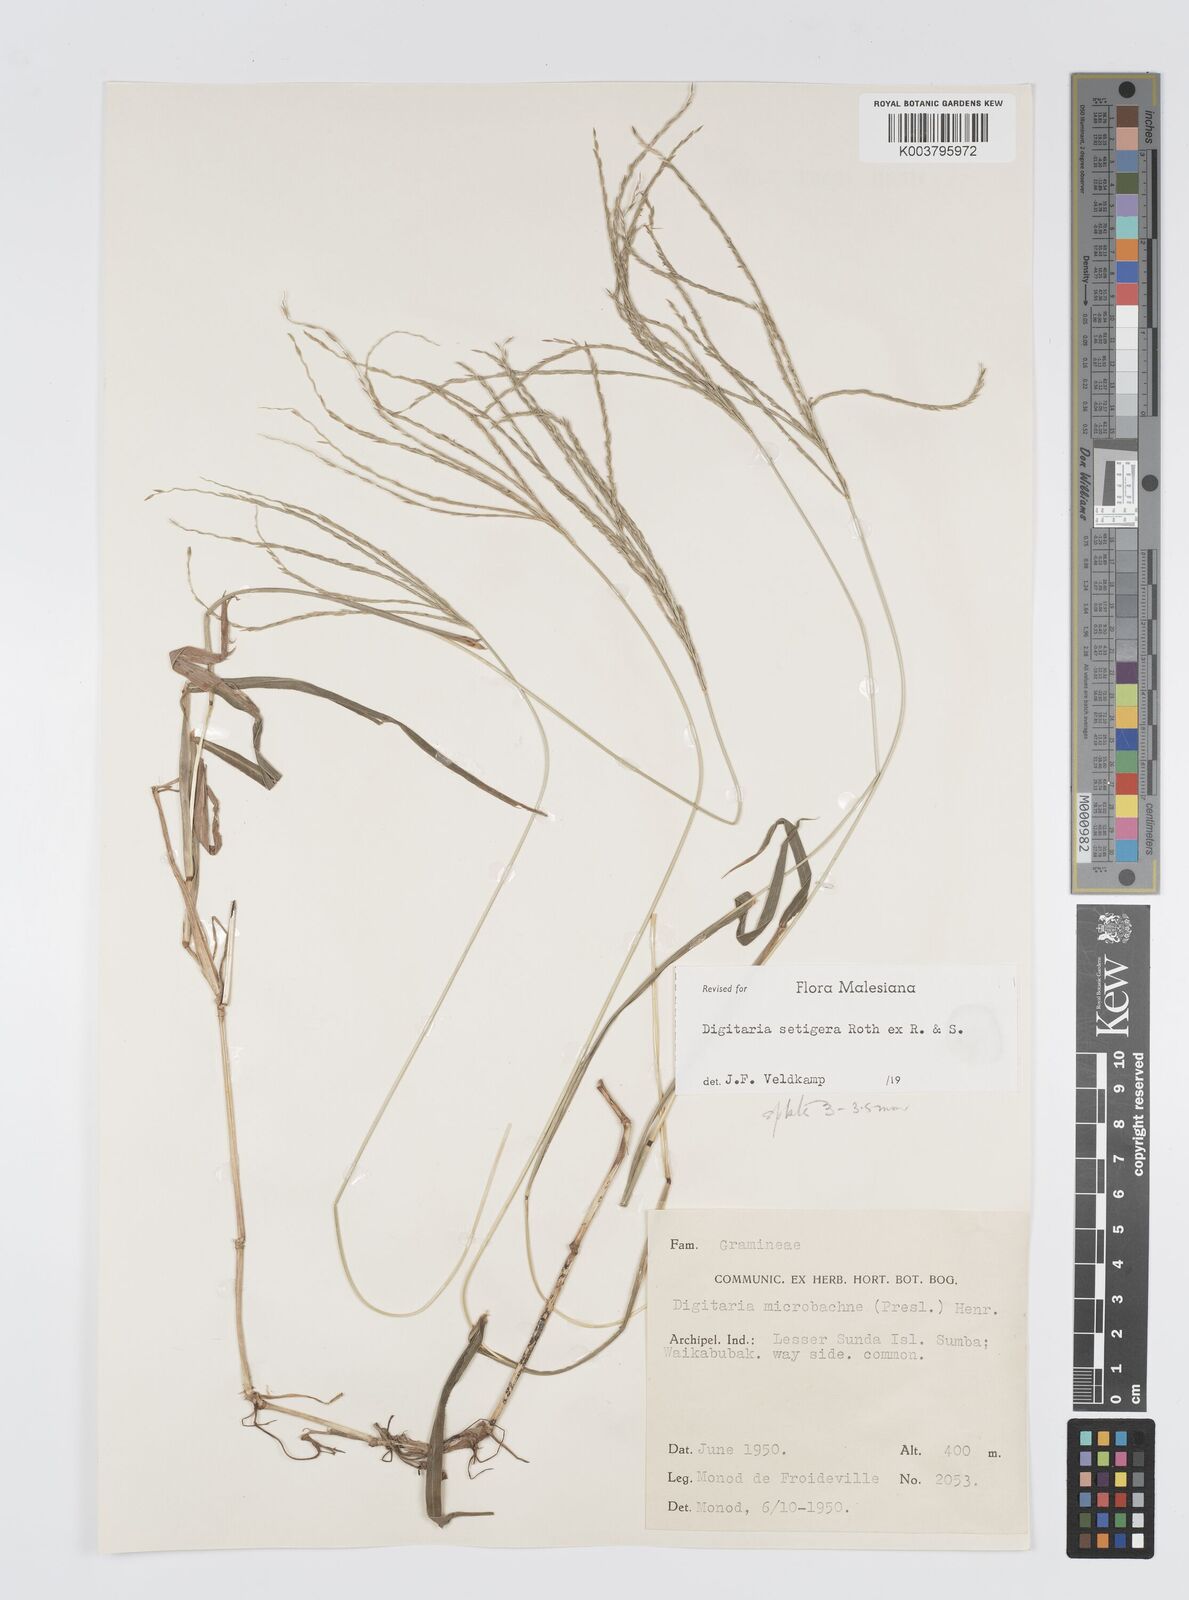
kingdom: Plantae
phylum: Tracheophyta
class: Liliopsida
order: Poales
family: Poaceae
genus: Digitaria
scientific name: Digitaria setigera
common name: East indian crabgrass
